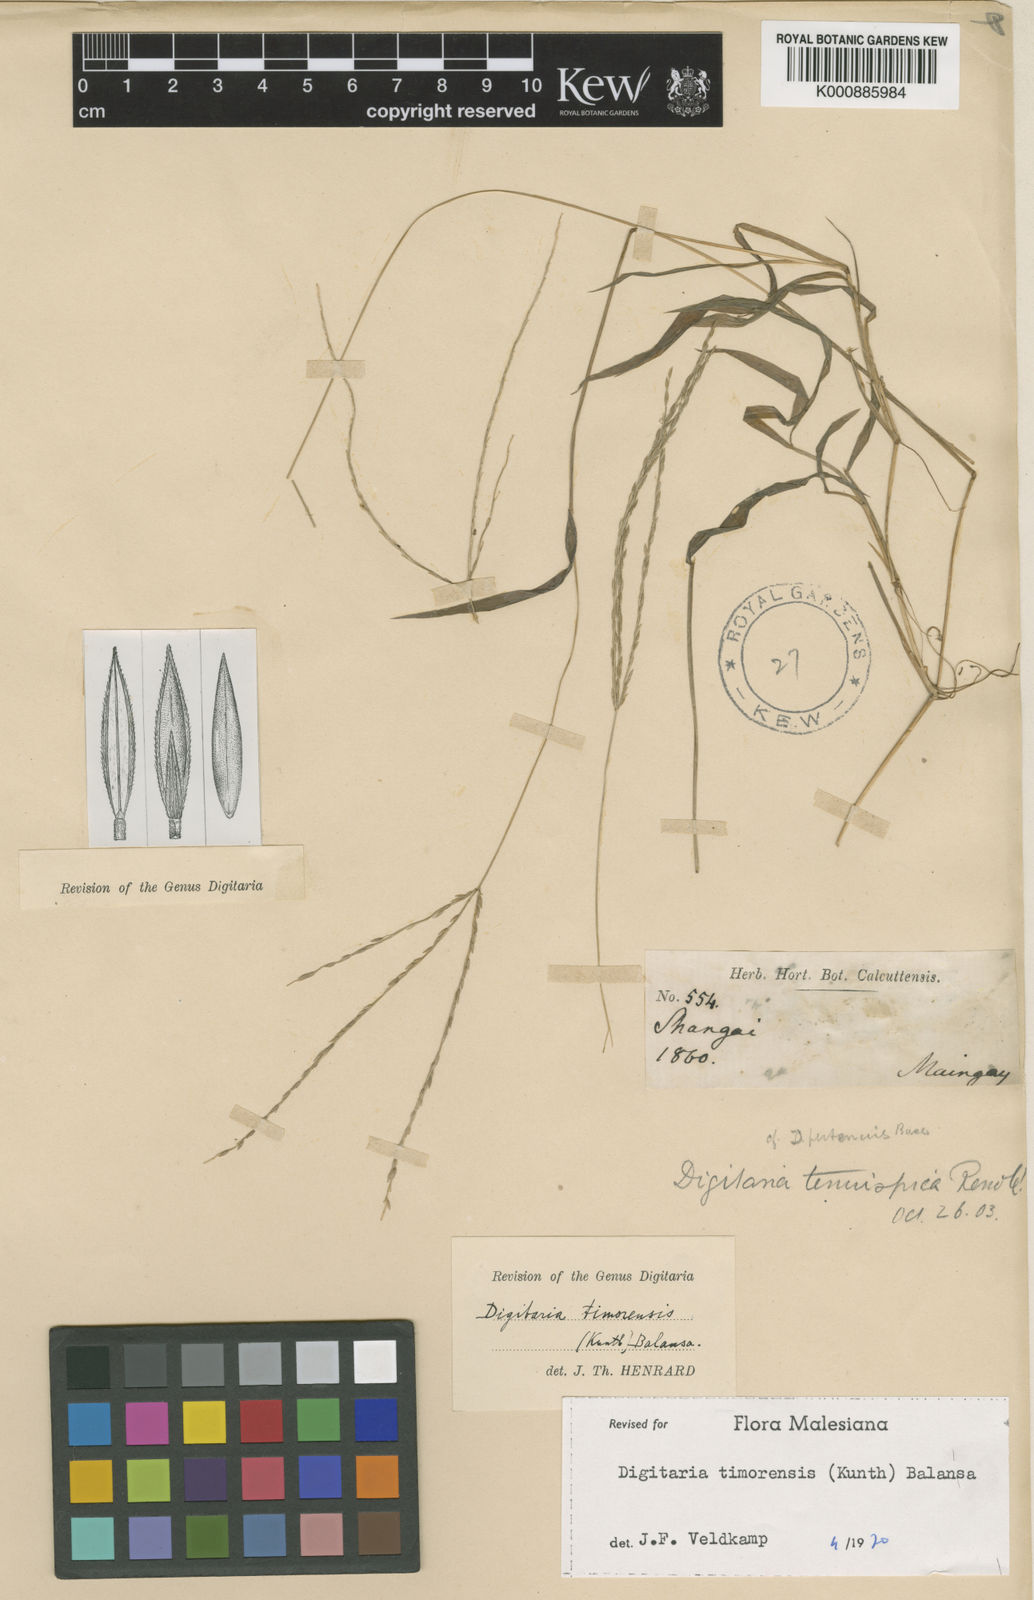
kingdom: Plantae
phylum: Tracheophyta
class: Liliopsida
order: Poales
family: Poaceae
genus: Digitaria
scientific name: Digitaria radicosa
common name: Trailing crabgrass
